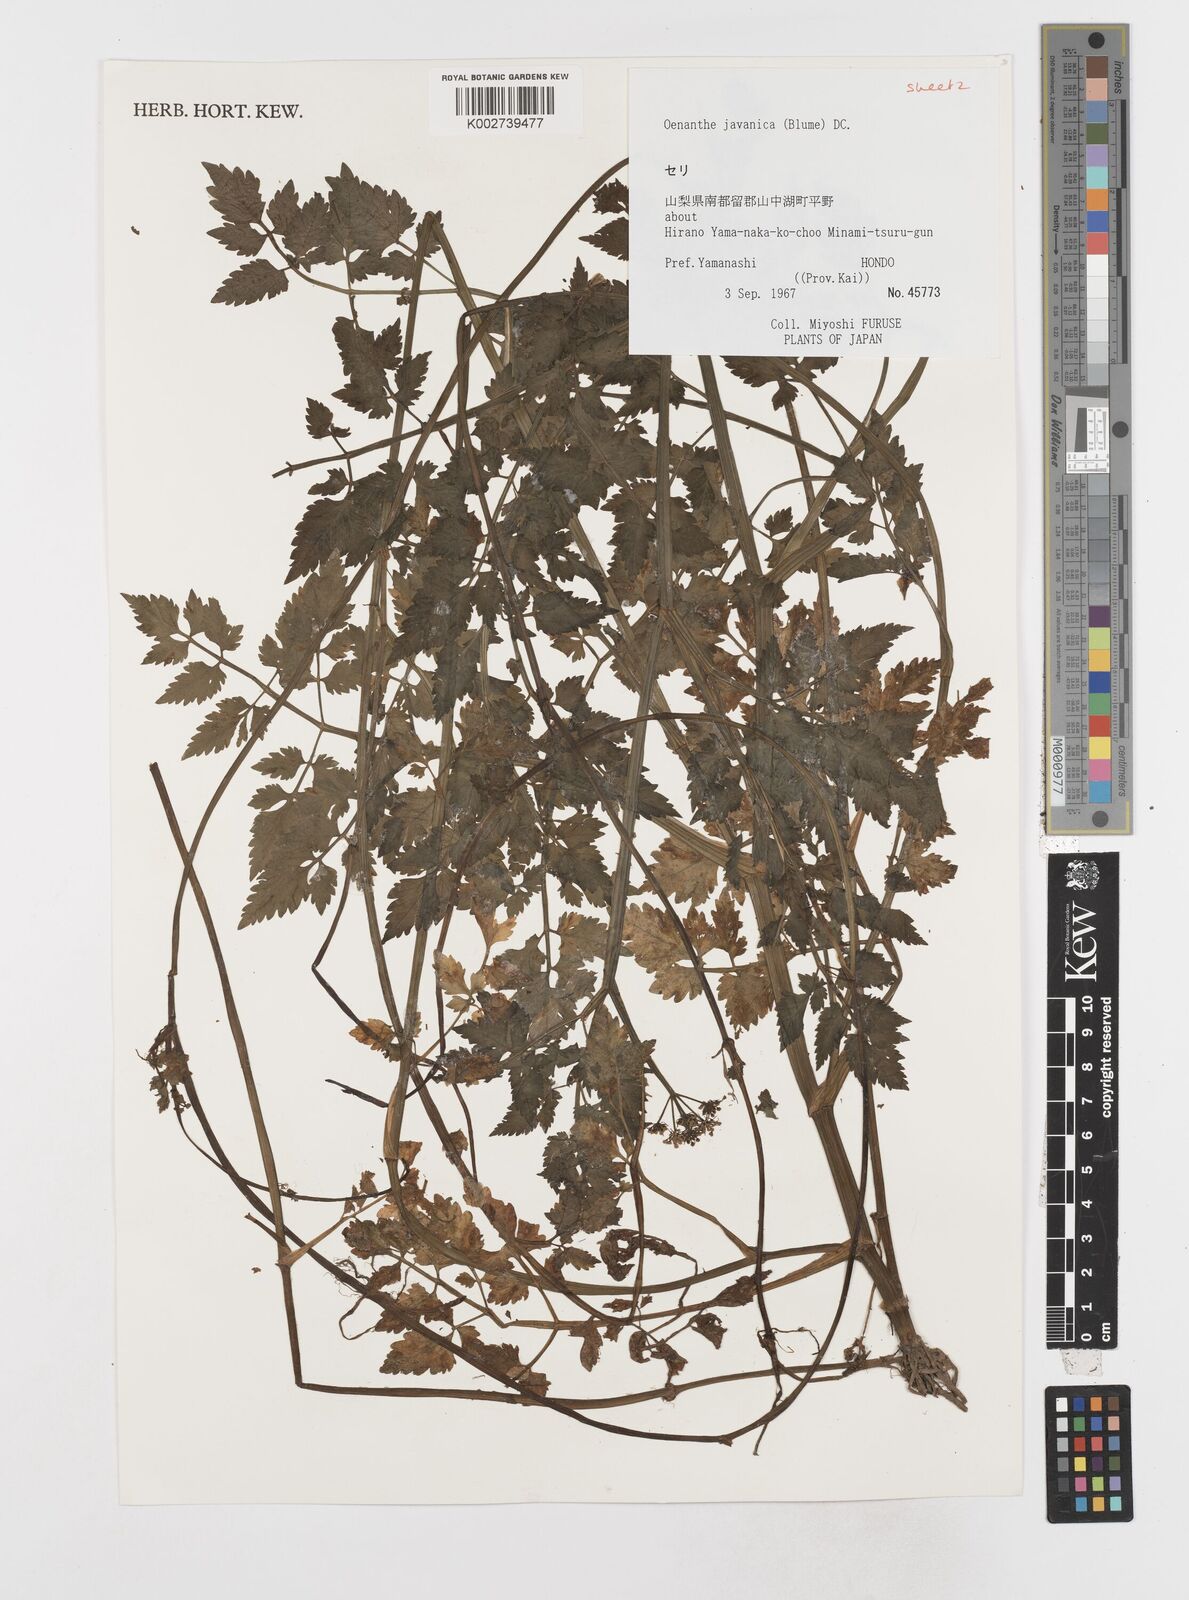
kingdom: Plantae
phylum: Tracheophyta
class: Magnoliopsida
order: Apiales
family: Apiaceae
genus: Oenanthe
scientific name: Oenanthe javanica
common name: Java water-dropwort
